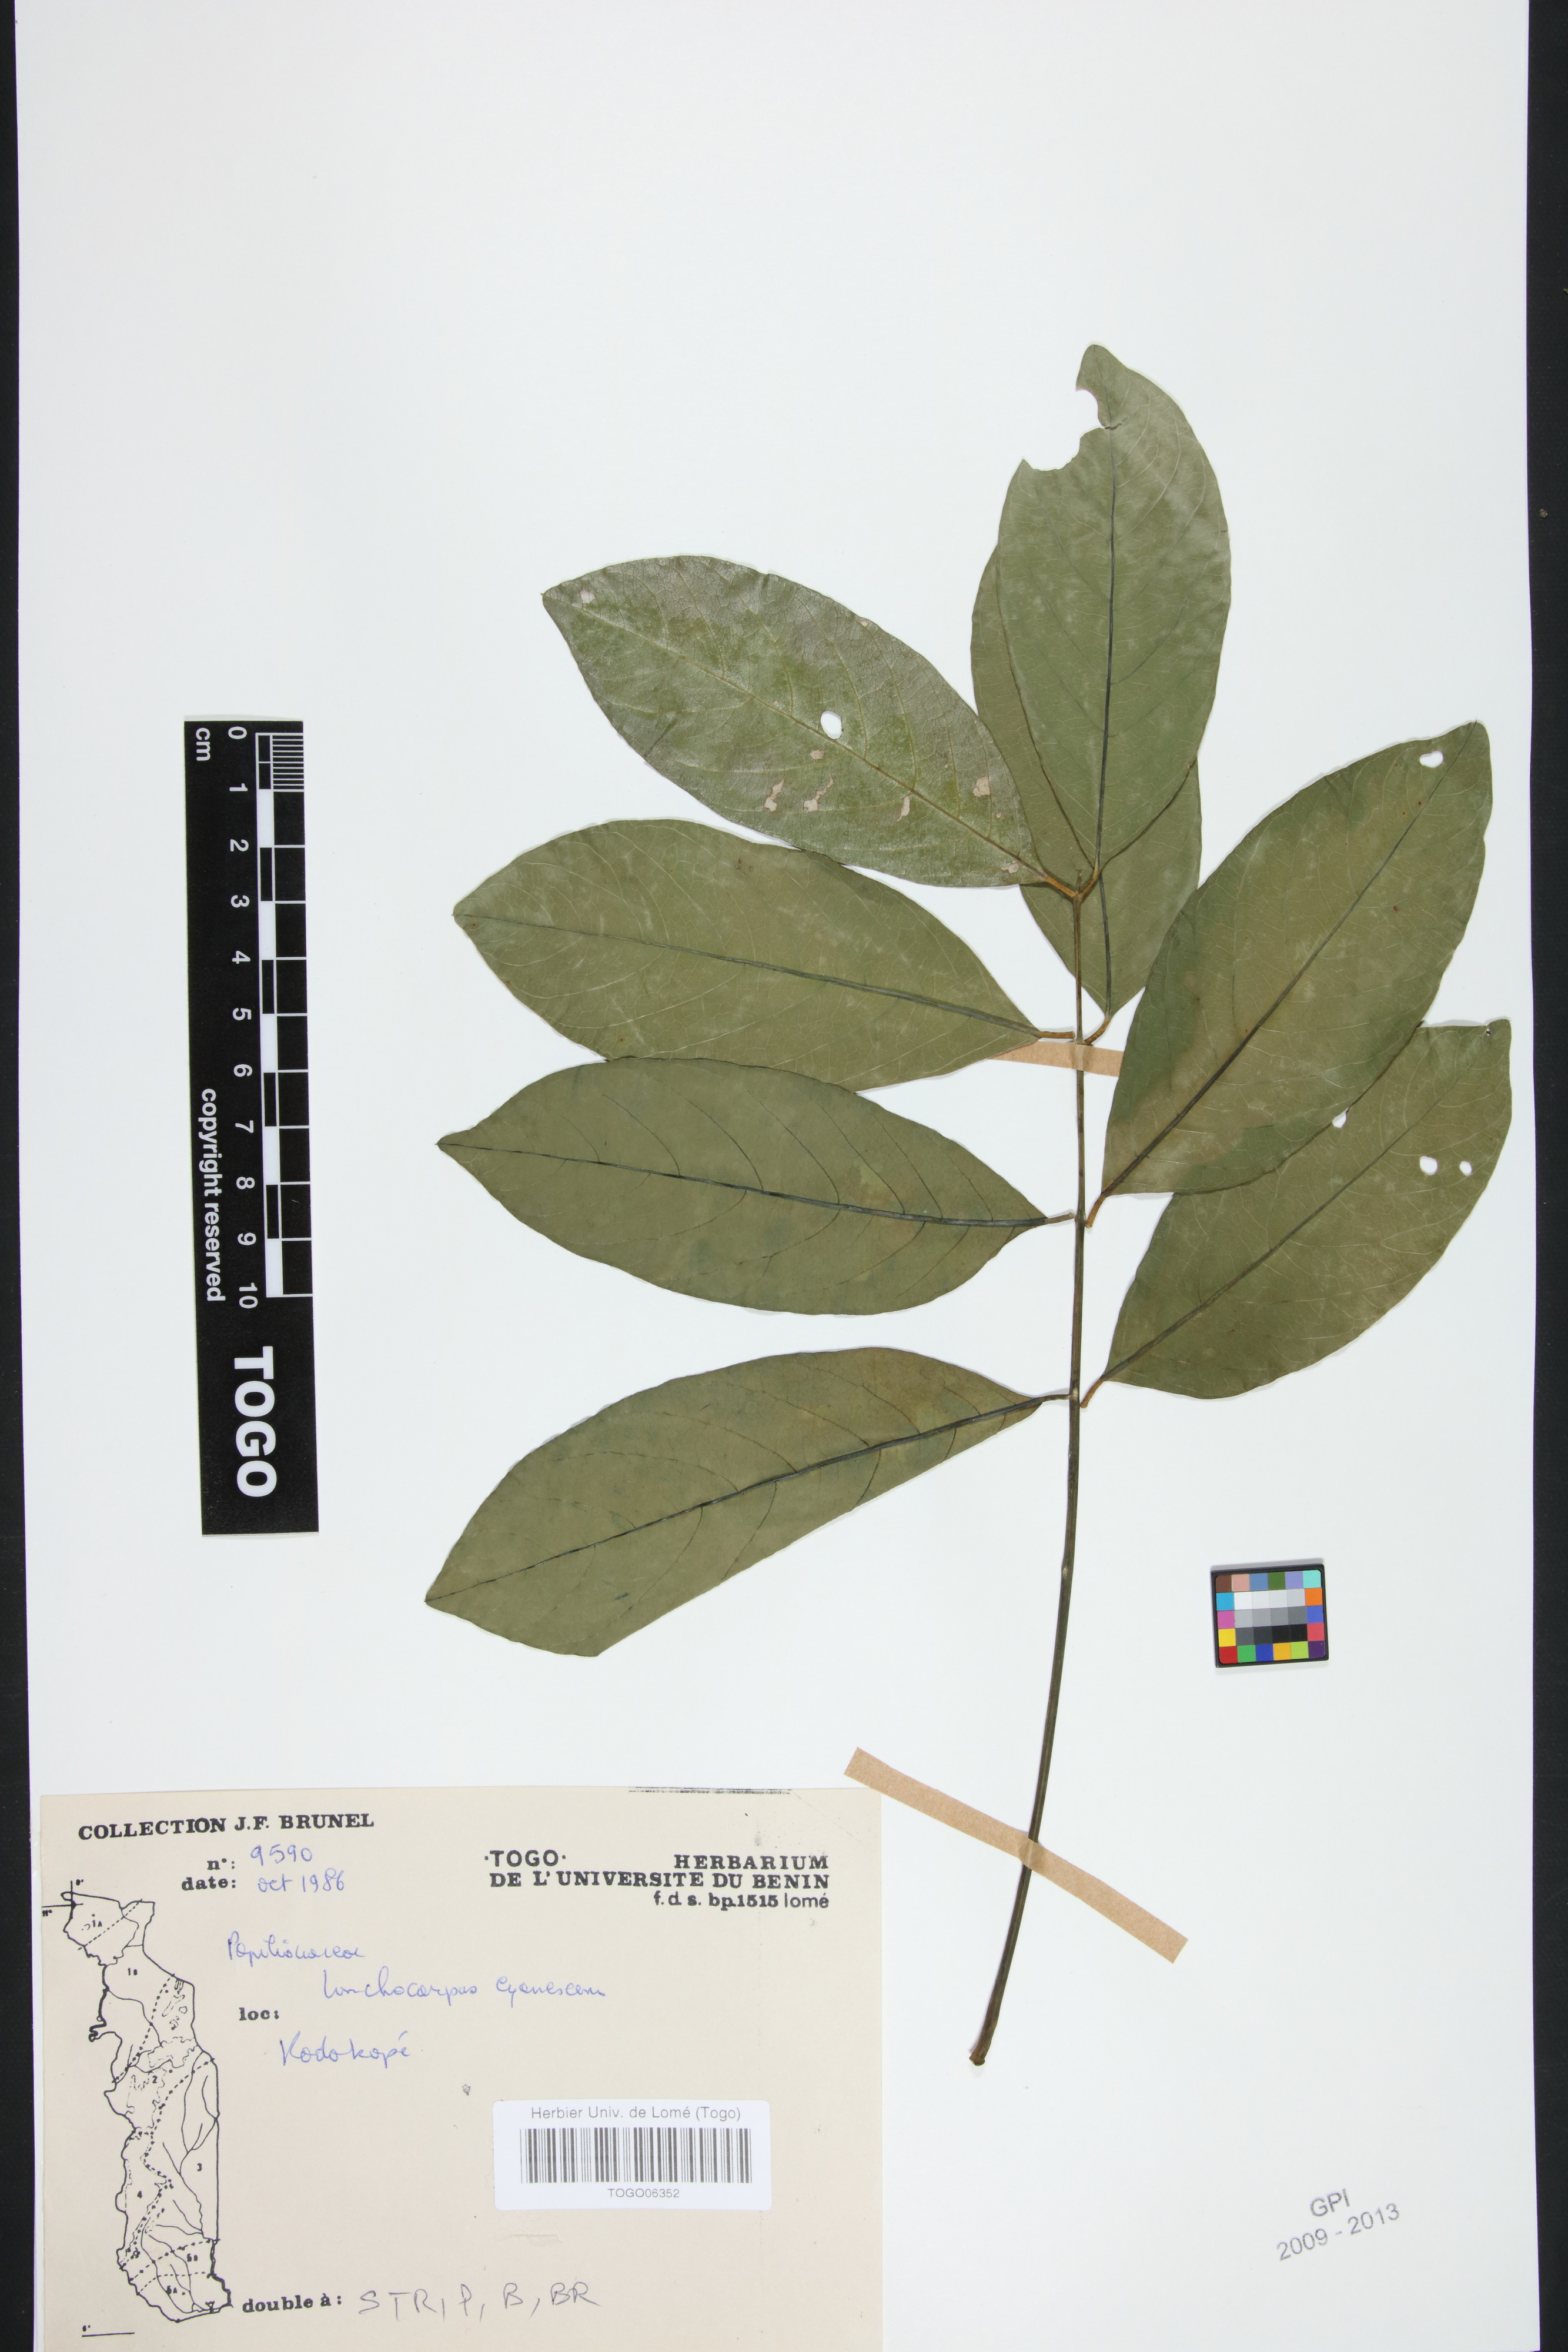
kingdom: Plantae
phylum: Tracheophyta
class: Magnoliopsida
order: Fabales
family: Fabaceae
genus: Philenoptera
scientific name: Philenoptera cyanescens
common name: West african-indigo
